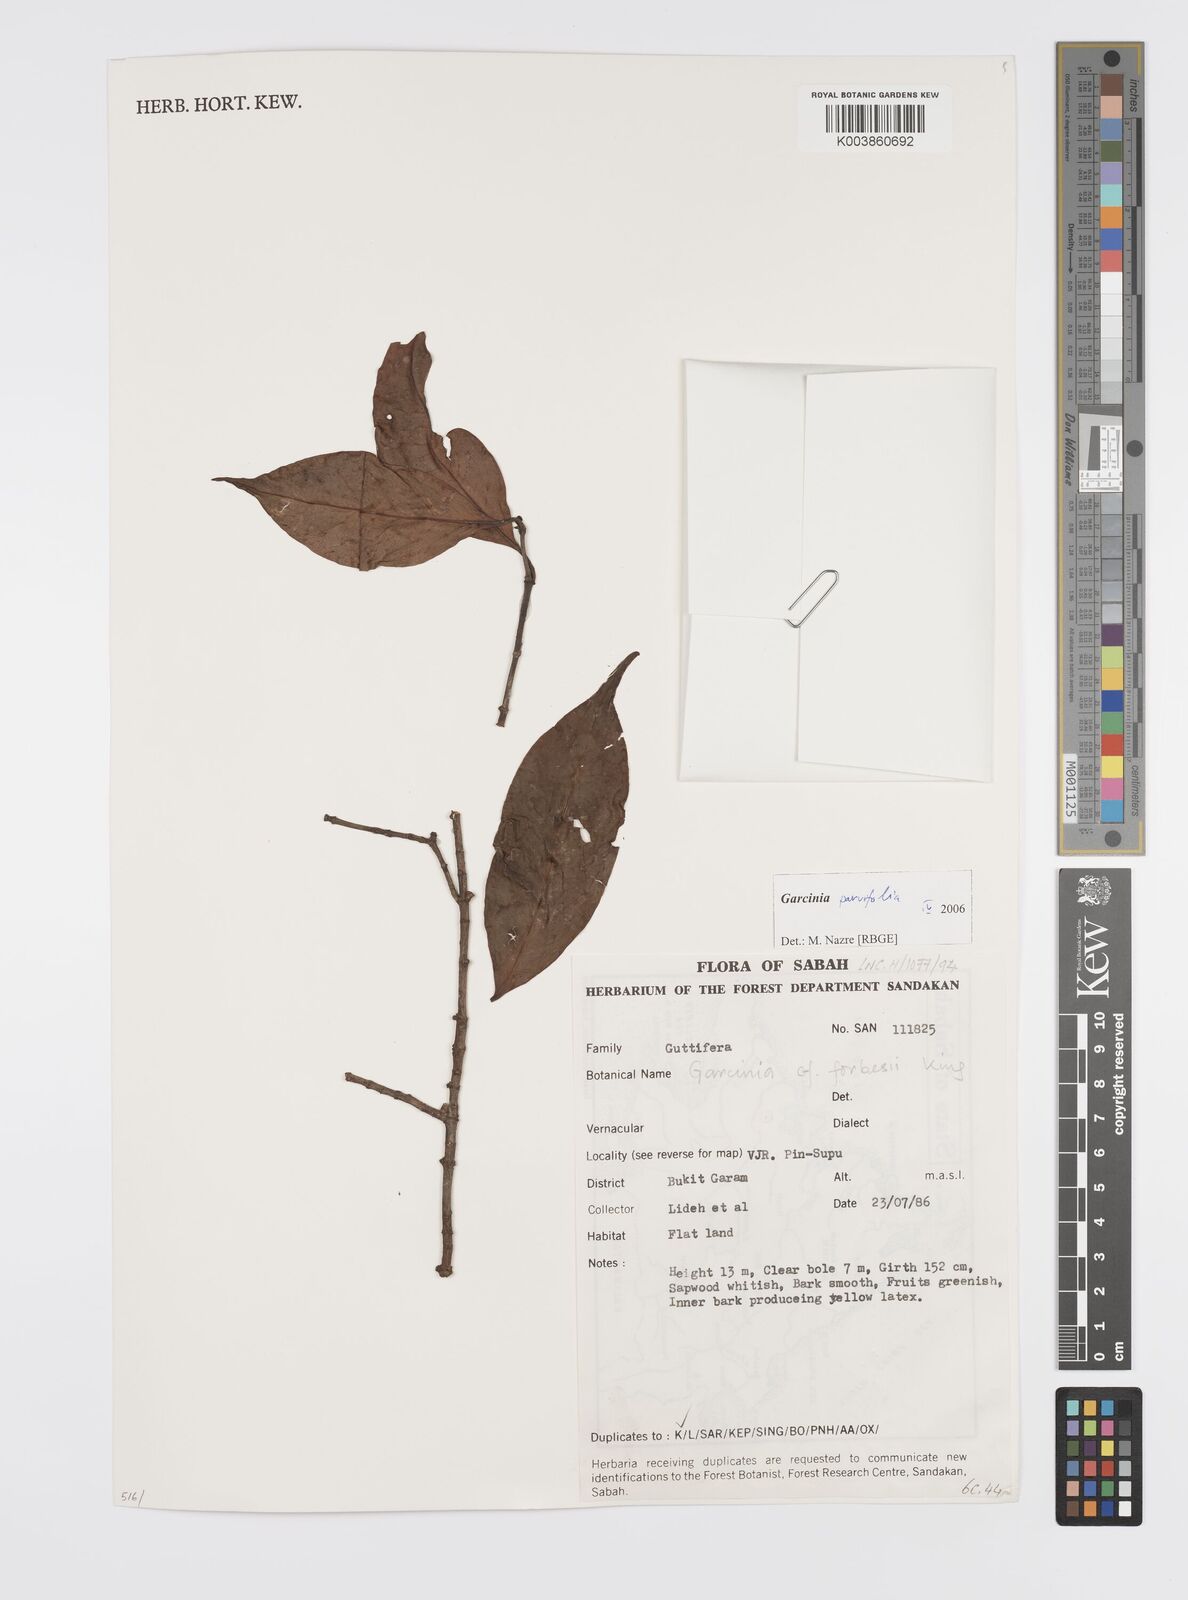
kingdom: Plantae
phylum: Tracheophyta
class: Magnoliopsida
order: Malpighiales
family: Clusiaceae
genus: Garcinia
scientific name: Garcinia parvifolia
